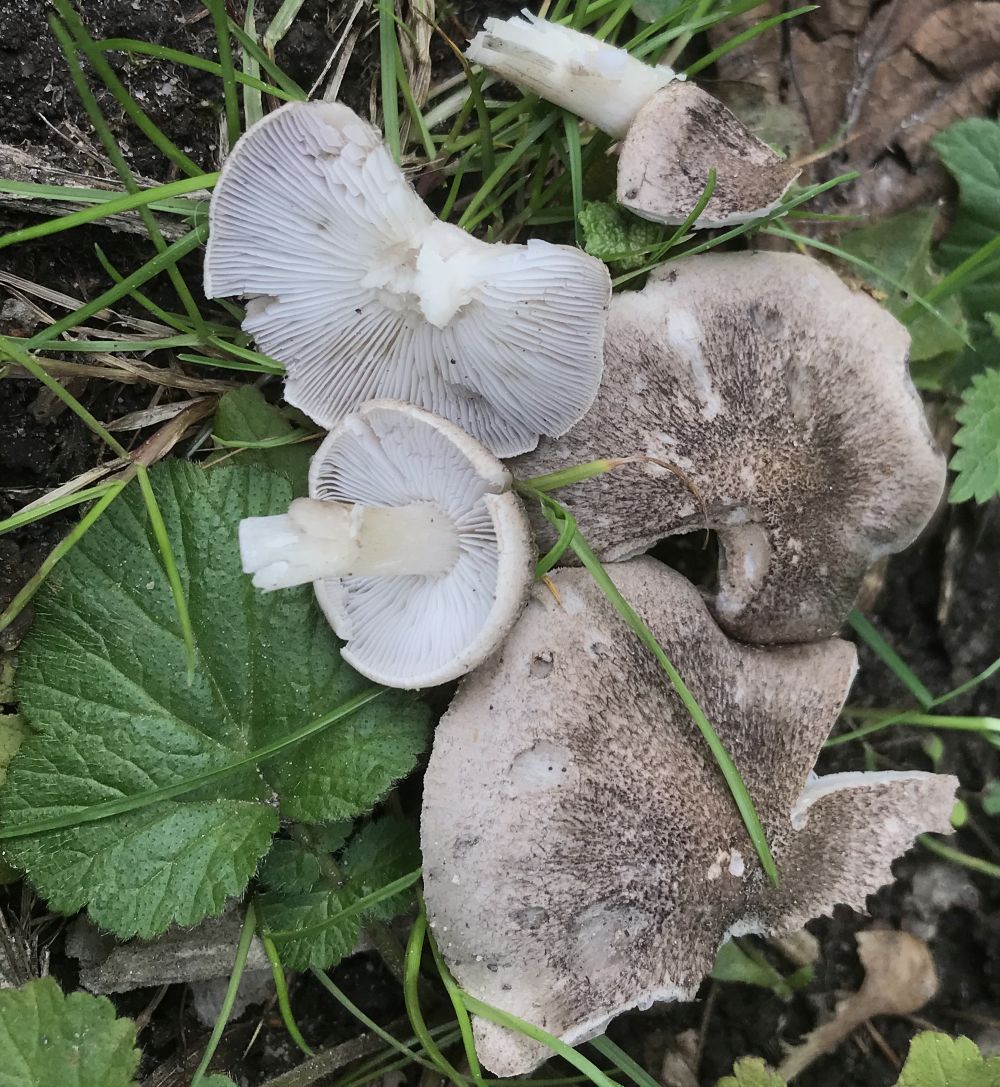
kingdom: Fungi
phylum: Basidiomycota
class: Agaricomycetes
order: Agaricales
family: Tricholomataceae
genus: Tricholoma
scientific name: Tricholoma
